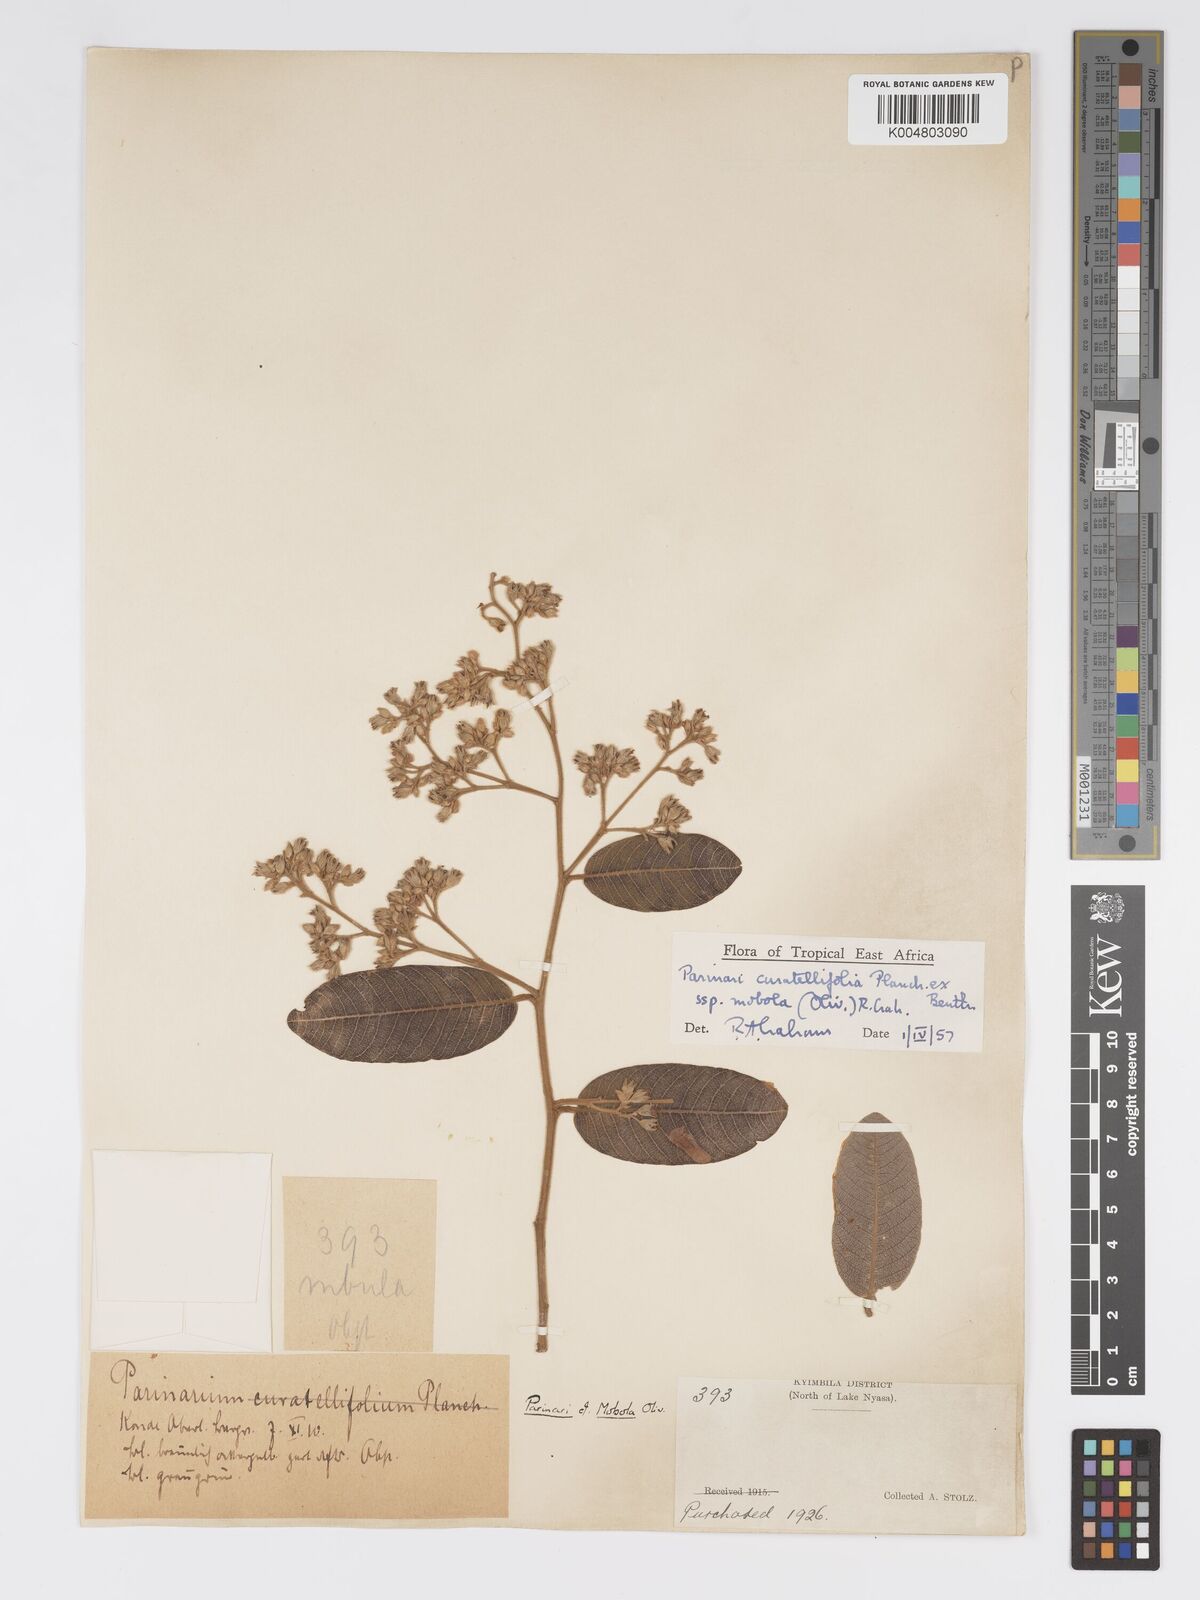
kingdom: Plantae
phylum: Tracheophyta
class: Magnoliopsida
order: Malpighiales
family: Chrysobalanaceae
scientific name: Chrysobalanaceae
